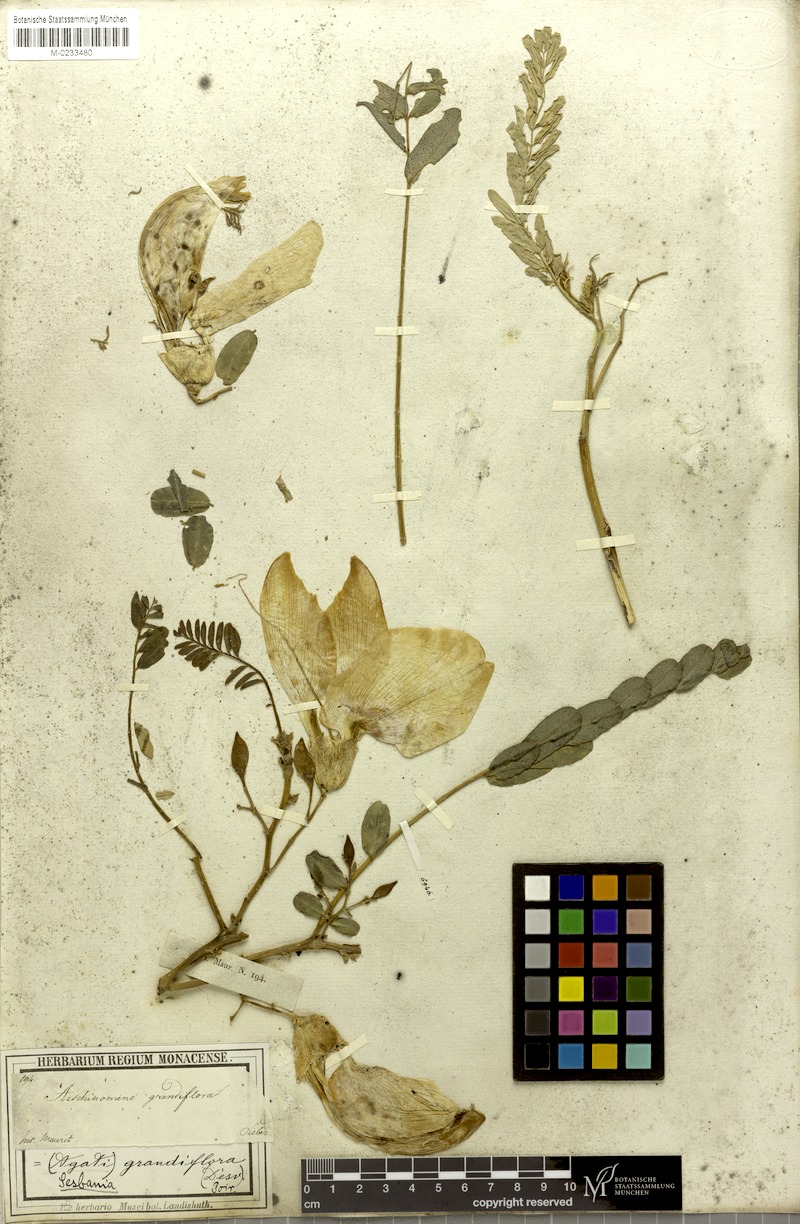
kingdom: Plantae
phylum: Tracheophyta
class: Magnoliopsida
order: Fabales
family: Fabaceae
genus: Sesbania
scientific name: Sesbania grandiflora
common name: Vegetable-hummingbird
